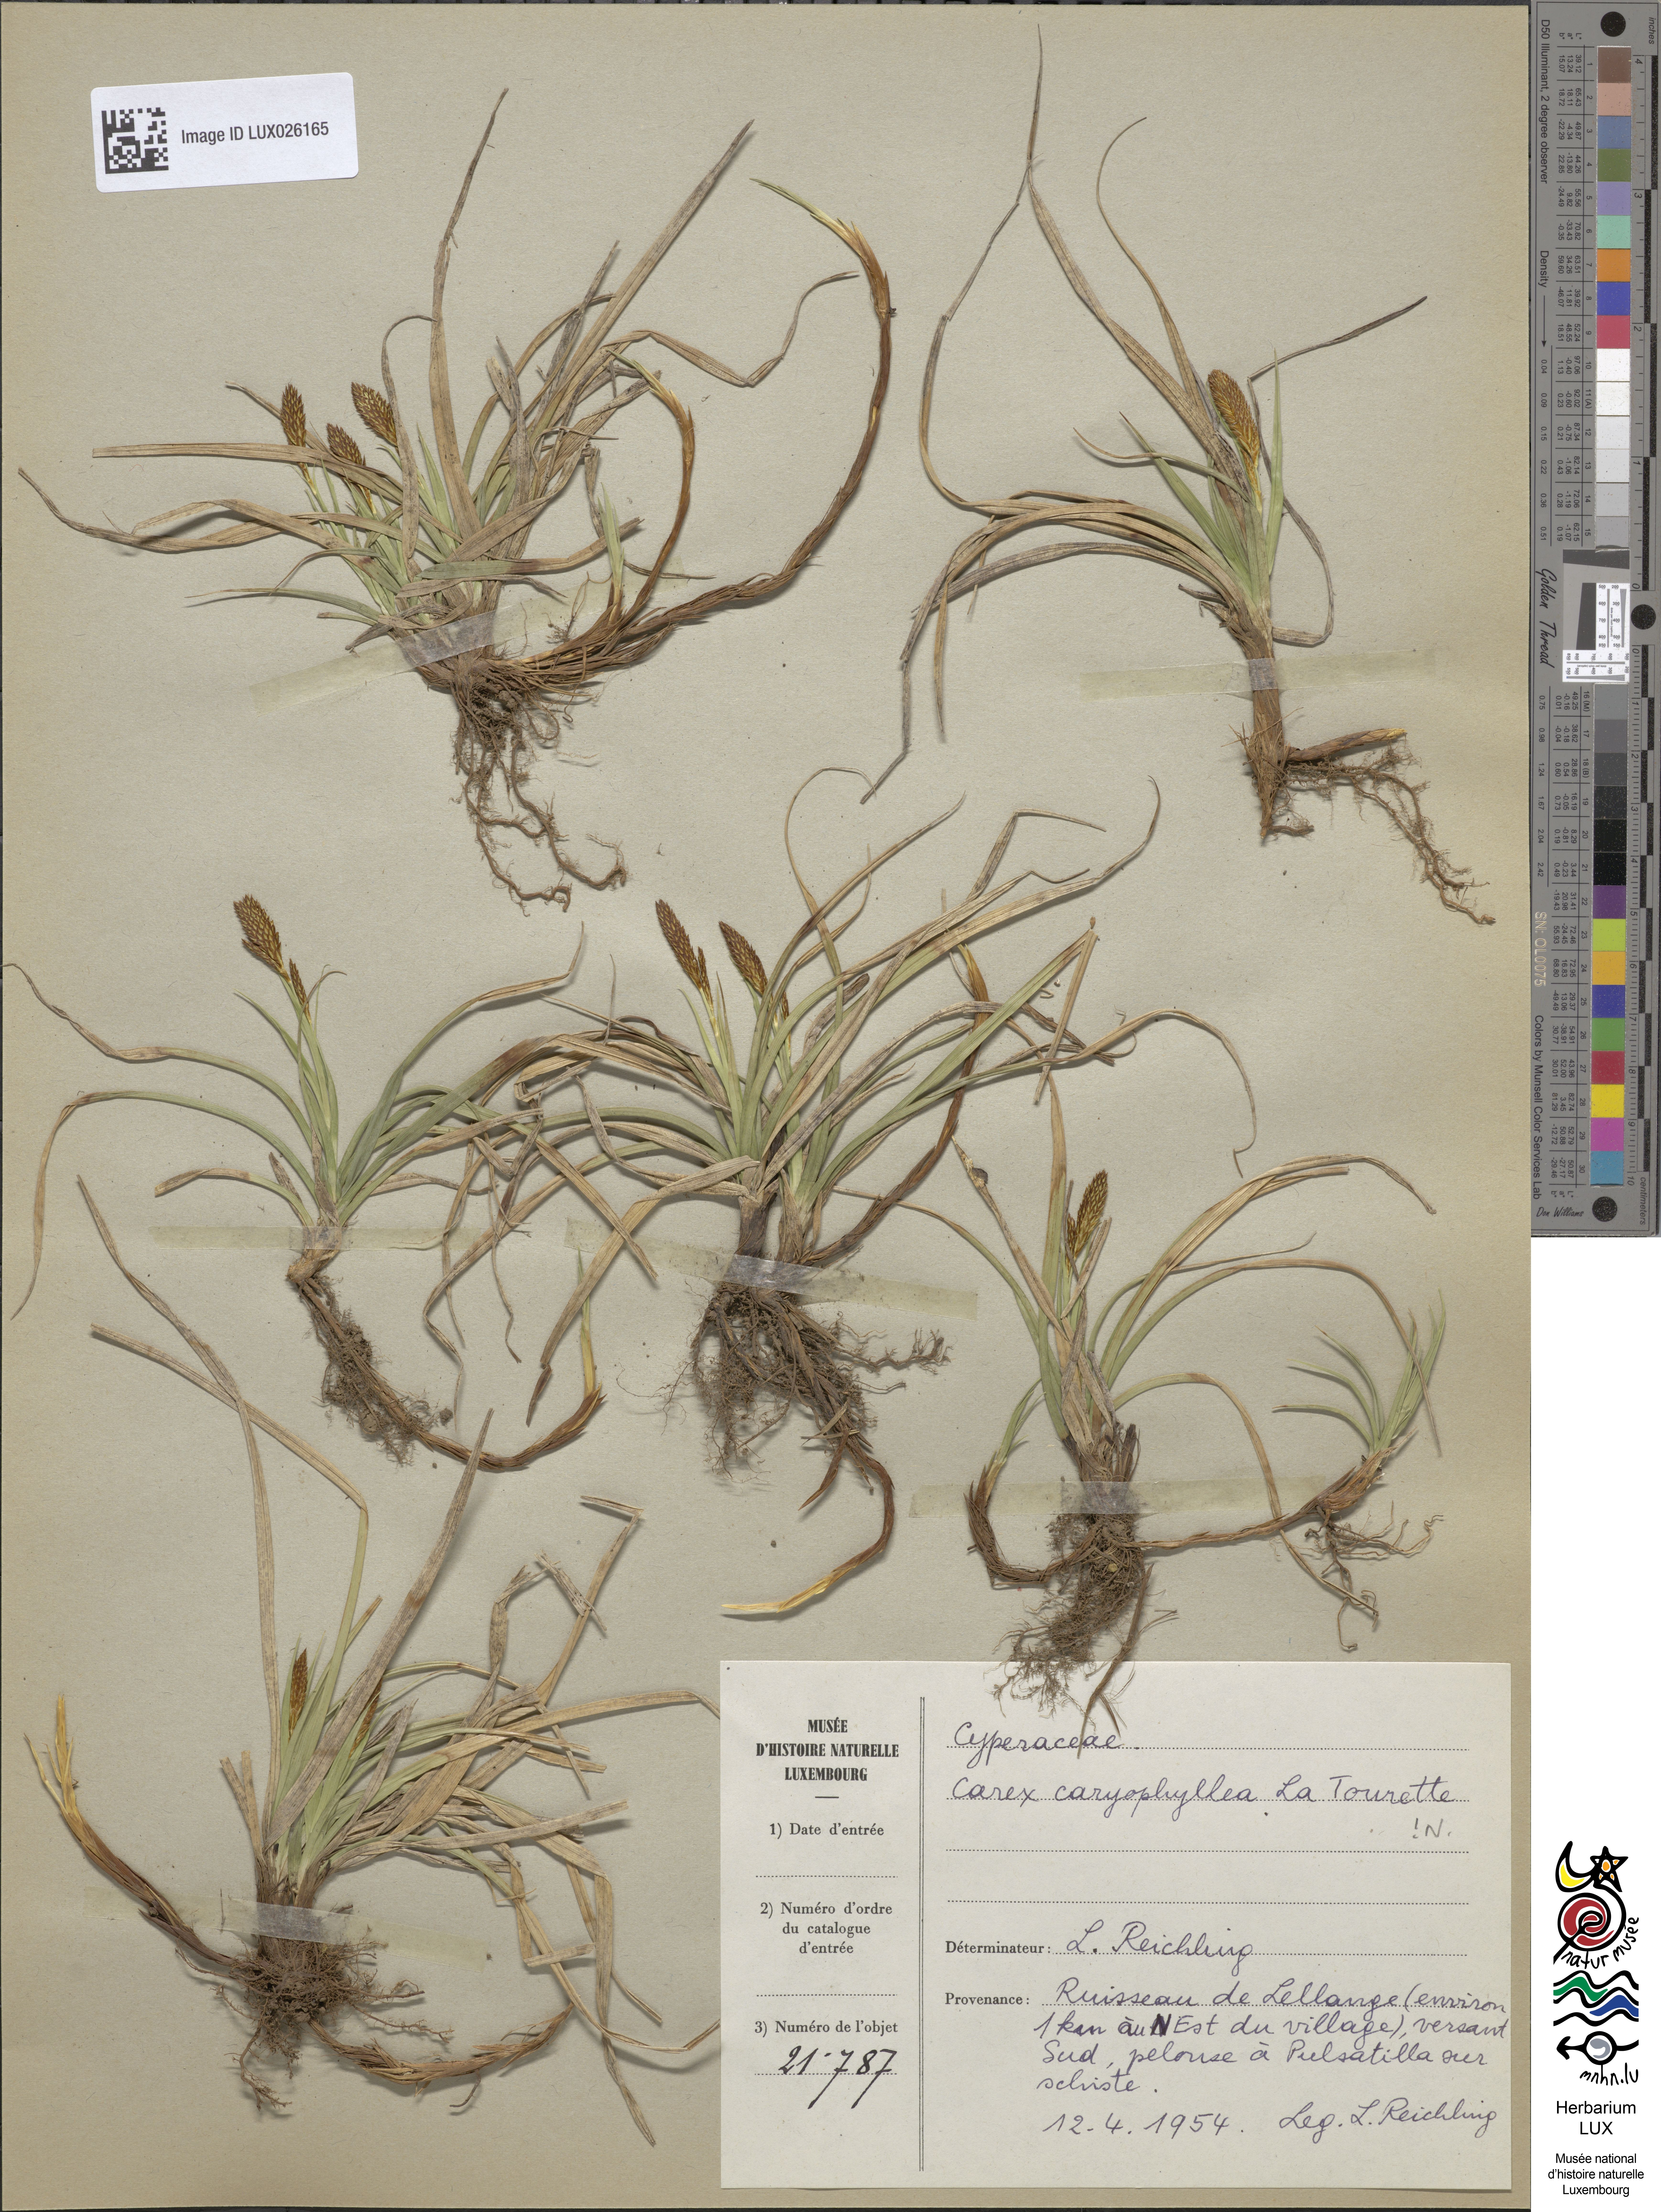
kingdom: Plantae
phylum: Tracheophyta
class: Liliopsida
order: Poales
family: Cyperaceae
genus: Carex
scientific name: Carex caryophyllea
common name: Spring sedge
